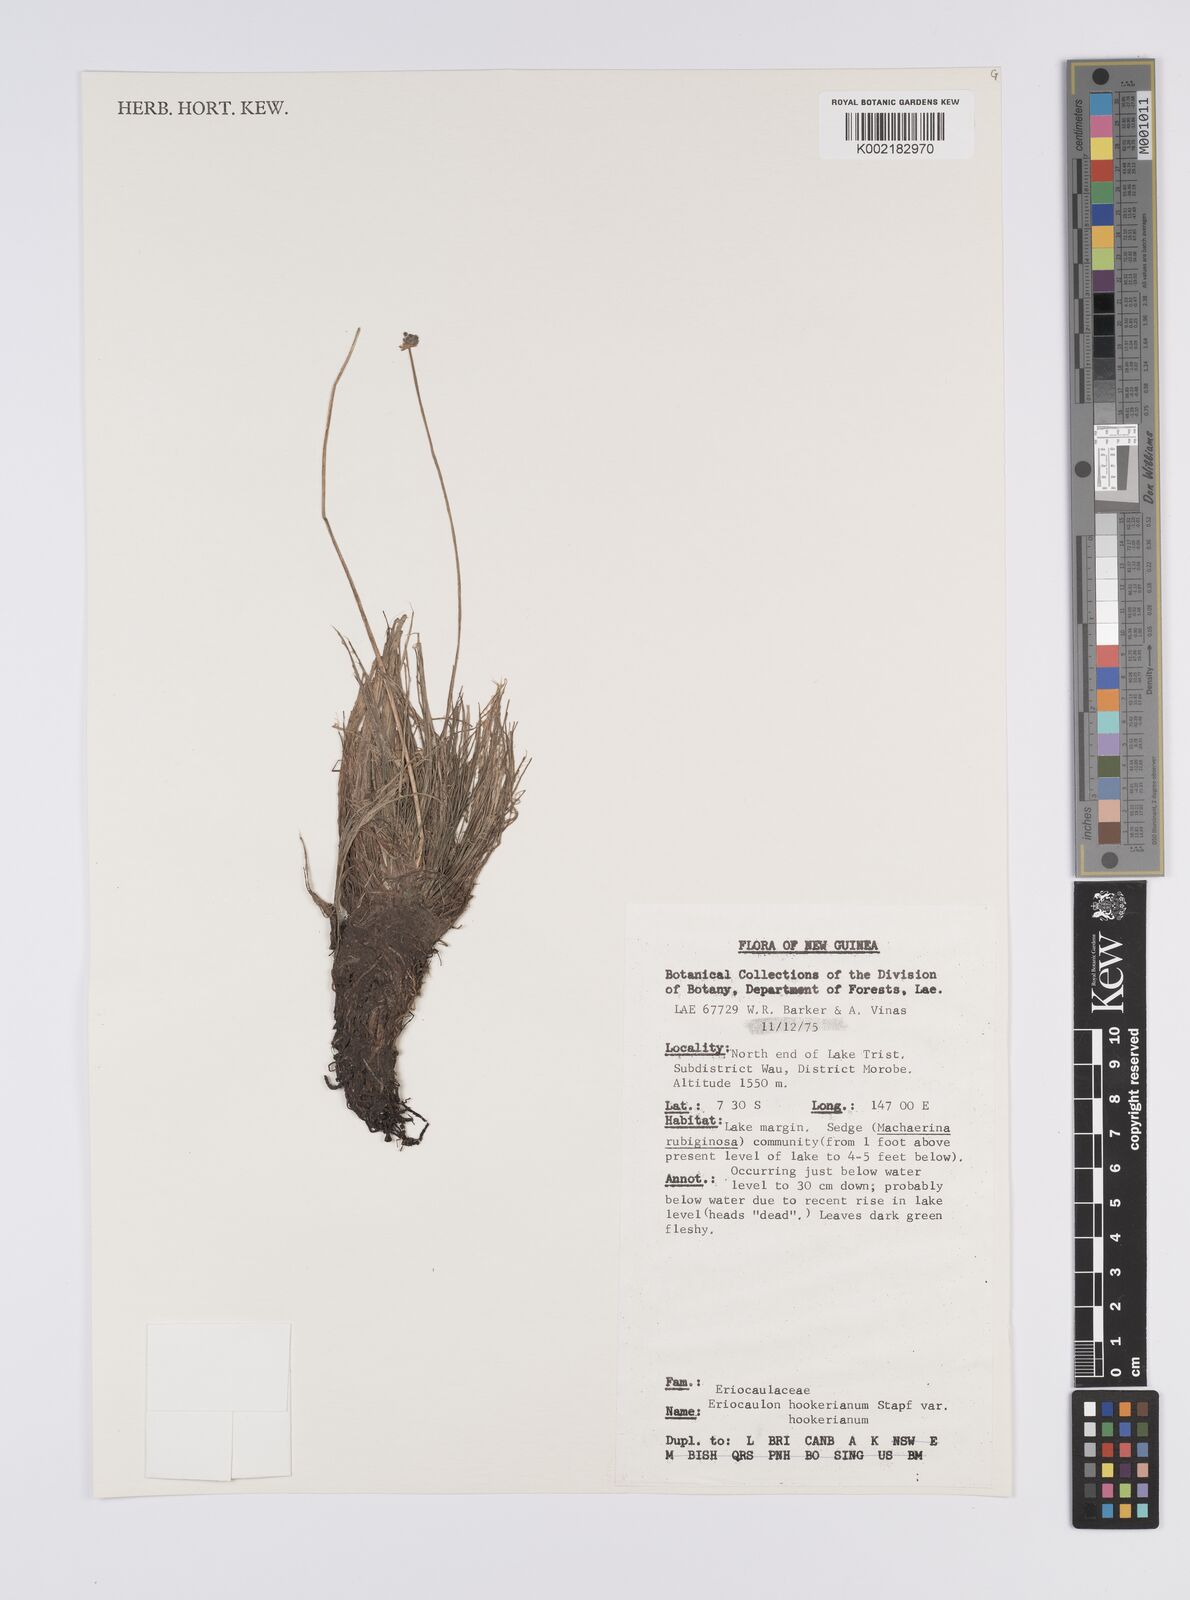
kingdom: Plantae
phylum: Tracheophyta
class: Liliopsida
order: Poales
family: Eriocaulaceae
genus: Eriocaulon
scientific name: Eriocaulon hookerianum
